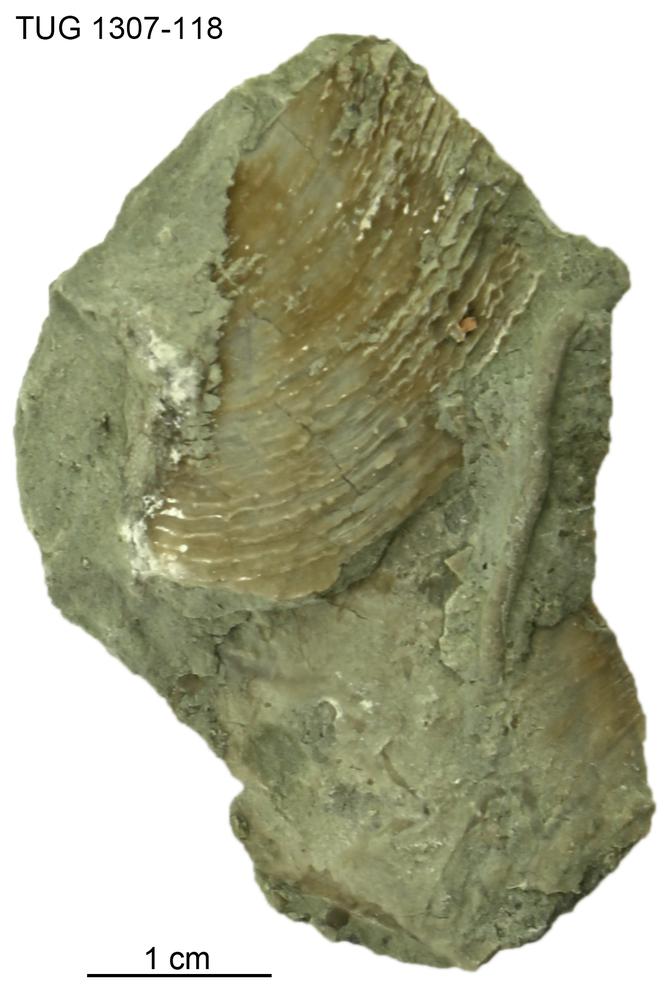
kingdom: Animalia
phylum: Mollusca
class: Monoplacophora
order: Tryblidiida
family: Tryblidiidae
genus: Pilina
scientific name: Pilina
